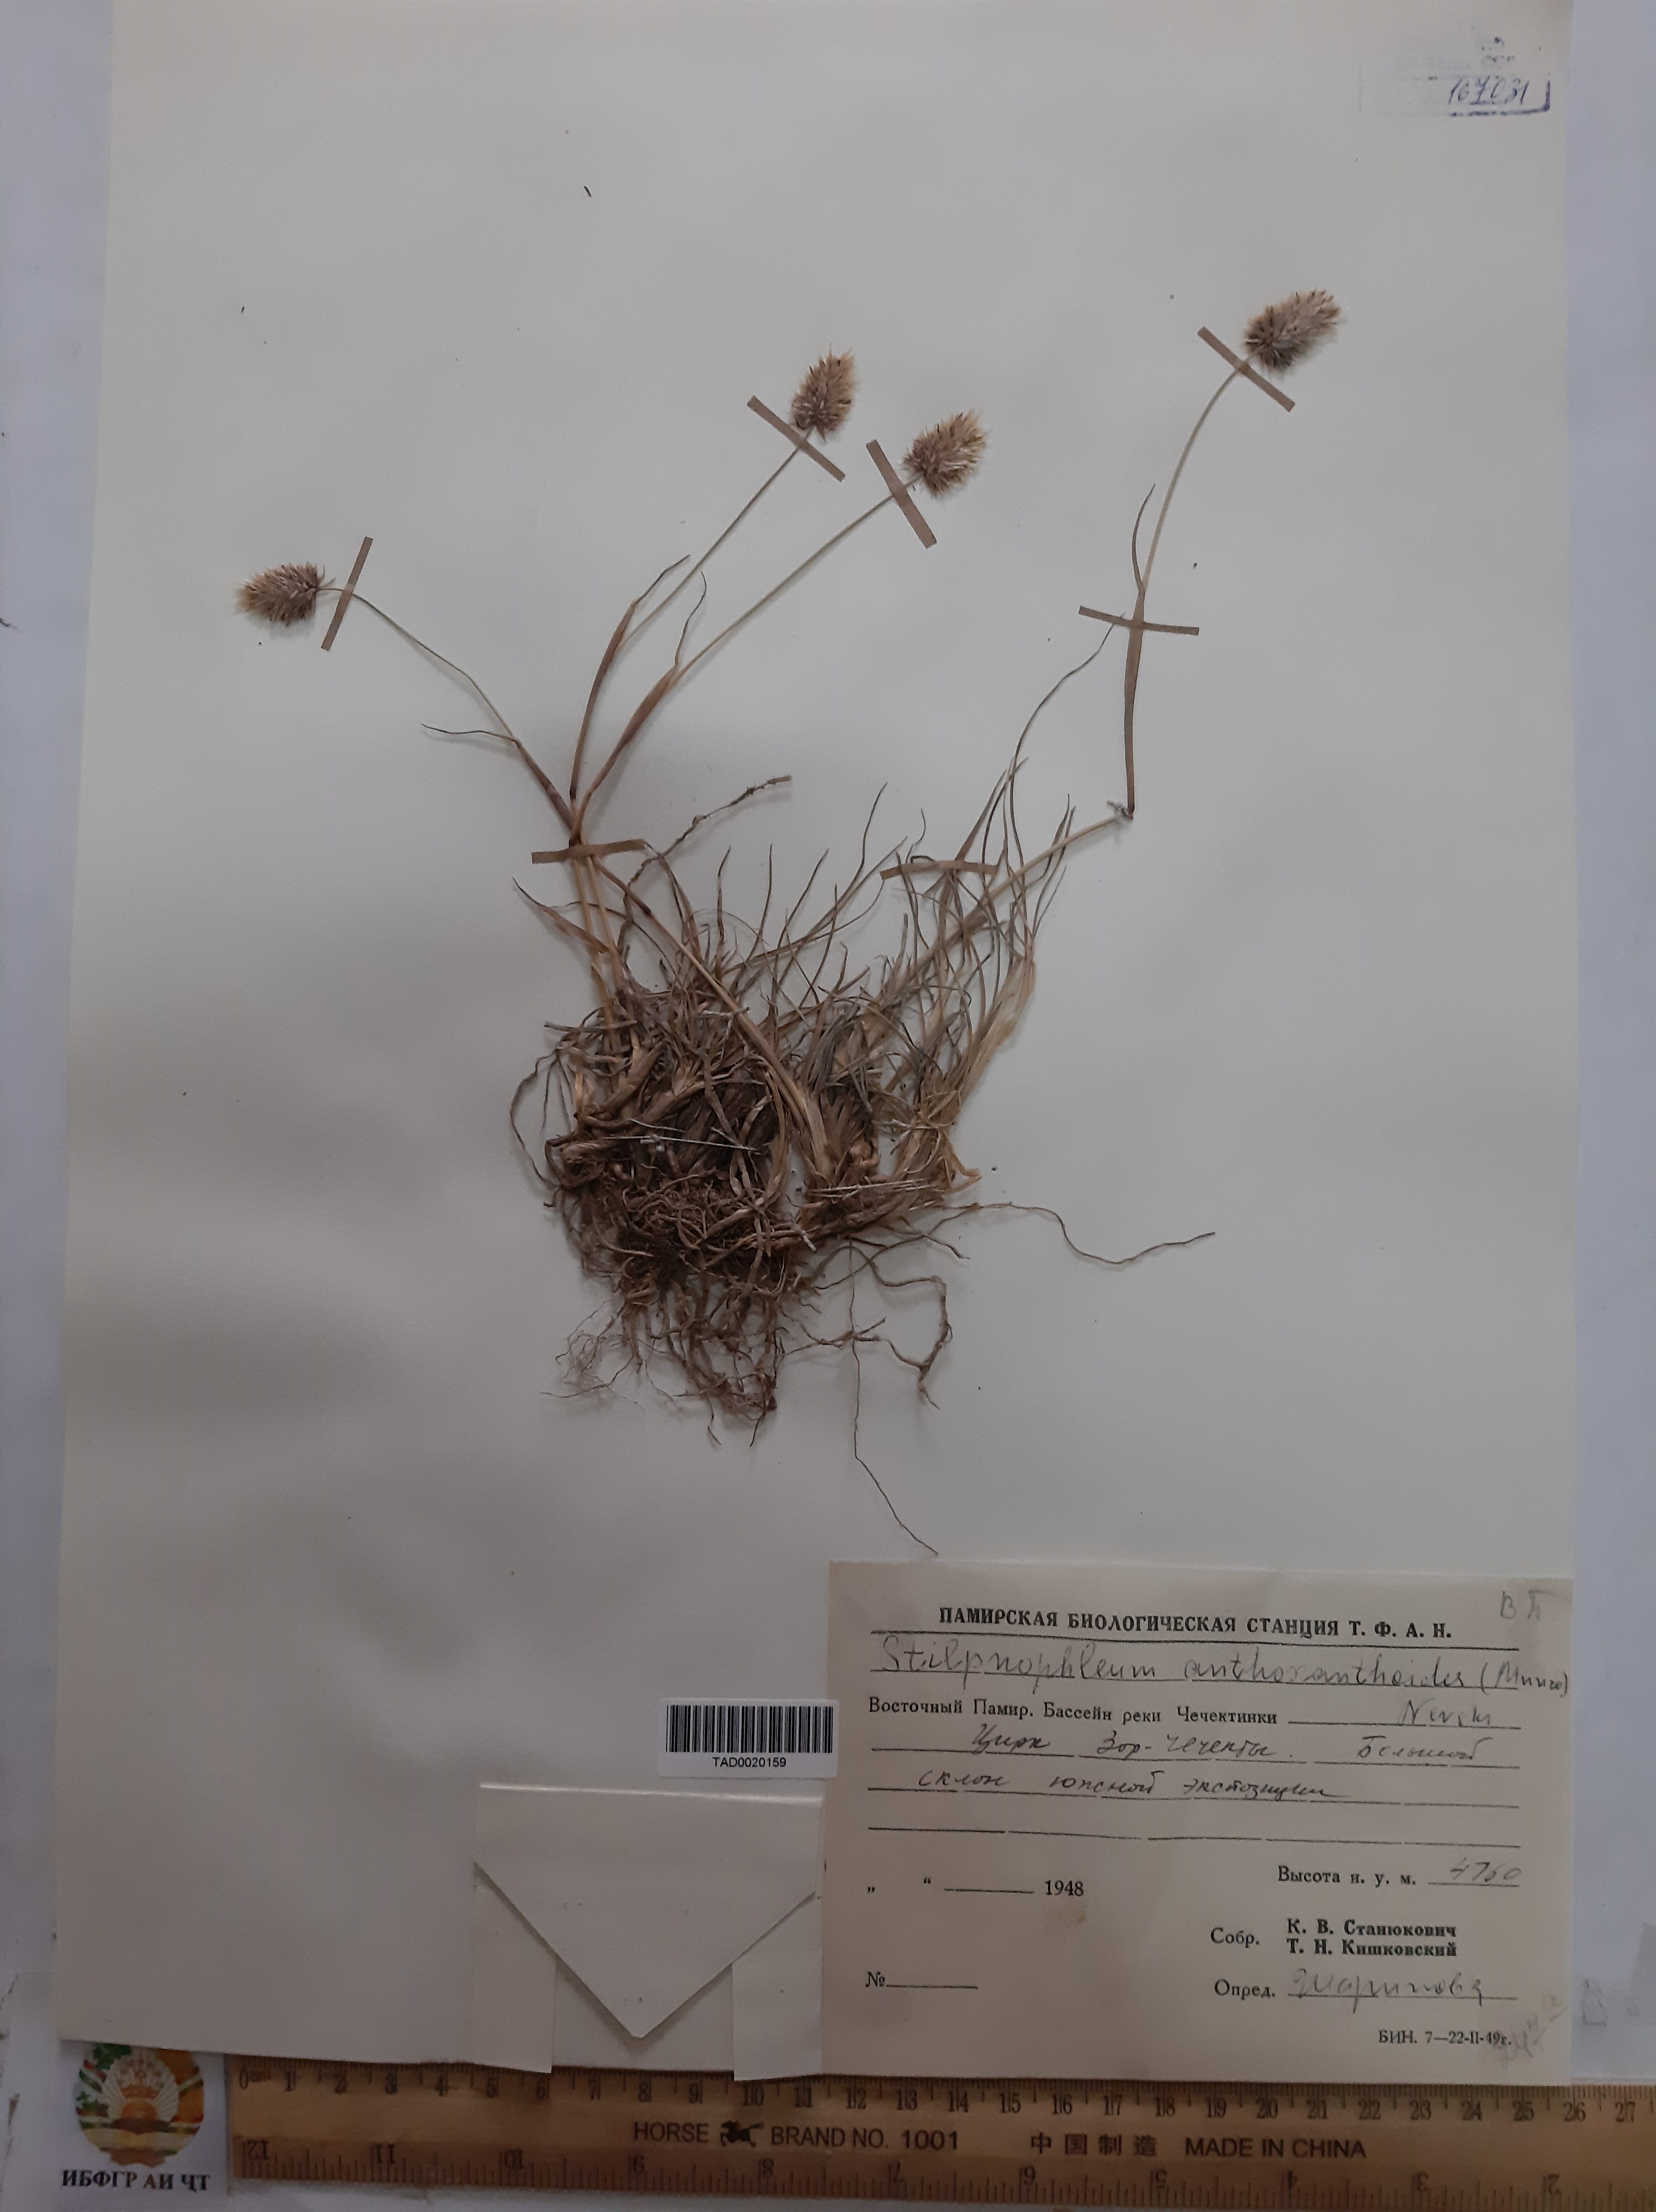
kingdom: Plantae
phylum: Tracheophyta
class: Liliopsida
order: Poales
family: Poaceae
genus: Calamagrostis
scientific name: Calamagrostis anthoxanthoides
